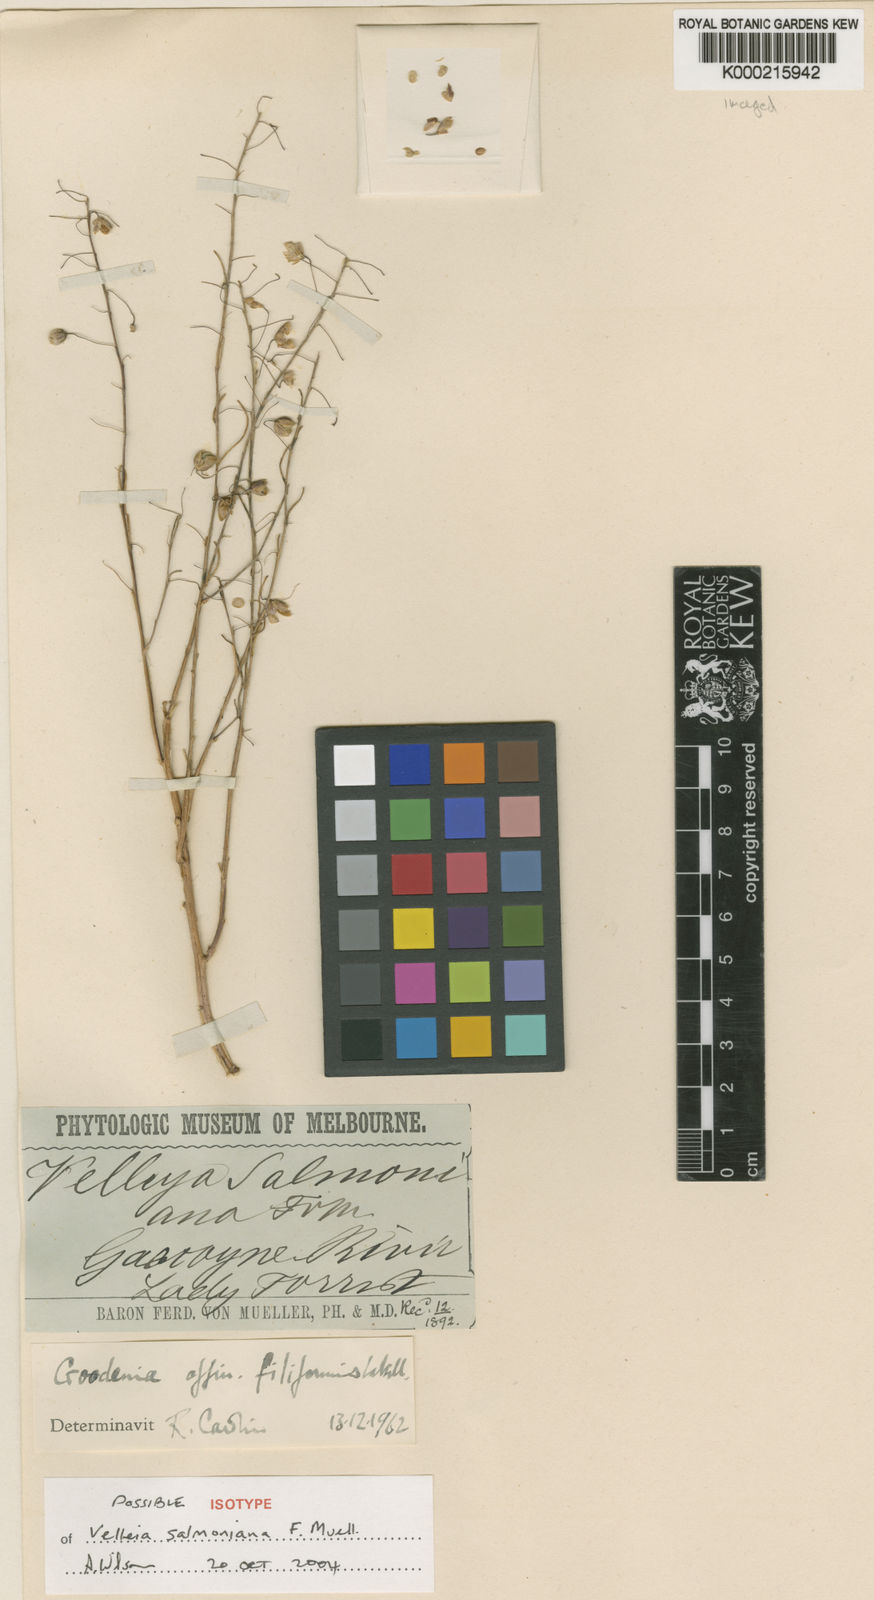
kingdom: Plantae
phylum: Tracheophyta
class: Magnoliopsida
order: Asterales
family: Goodeniaceae
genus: Goodenia
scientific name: Goodenia salmoniana
